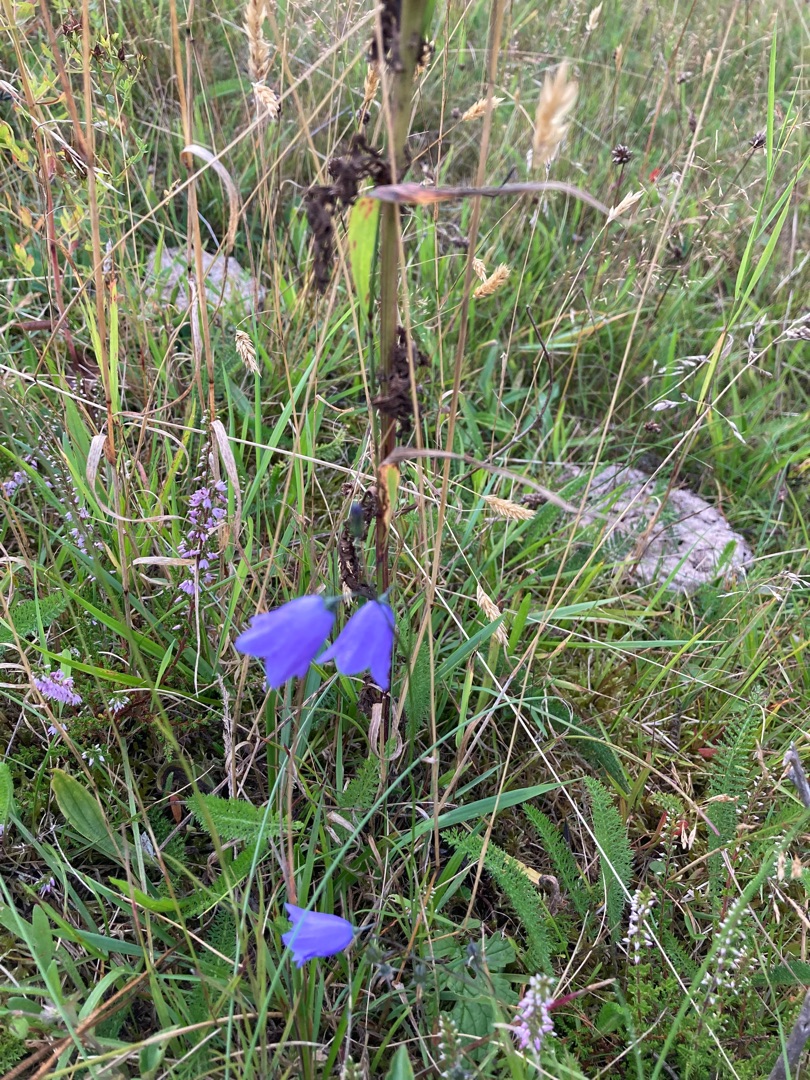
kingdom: Plantae
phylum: Tracheophyta
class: Magnoliopsida
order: Asterales
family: Campanulaceae
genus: Campanula
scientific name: Campanula rotundifolia
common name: Liden klokke
